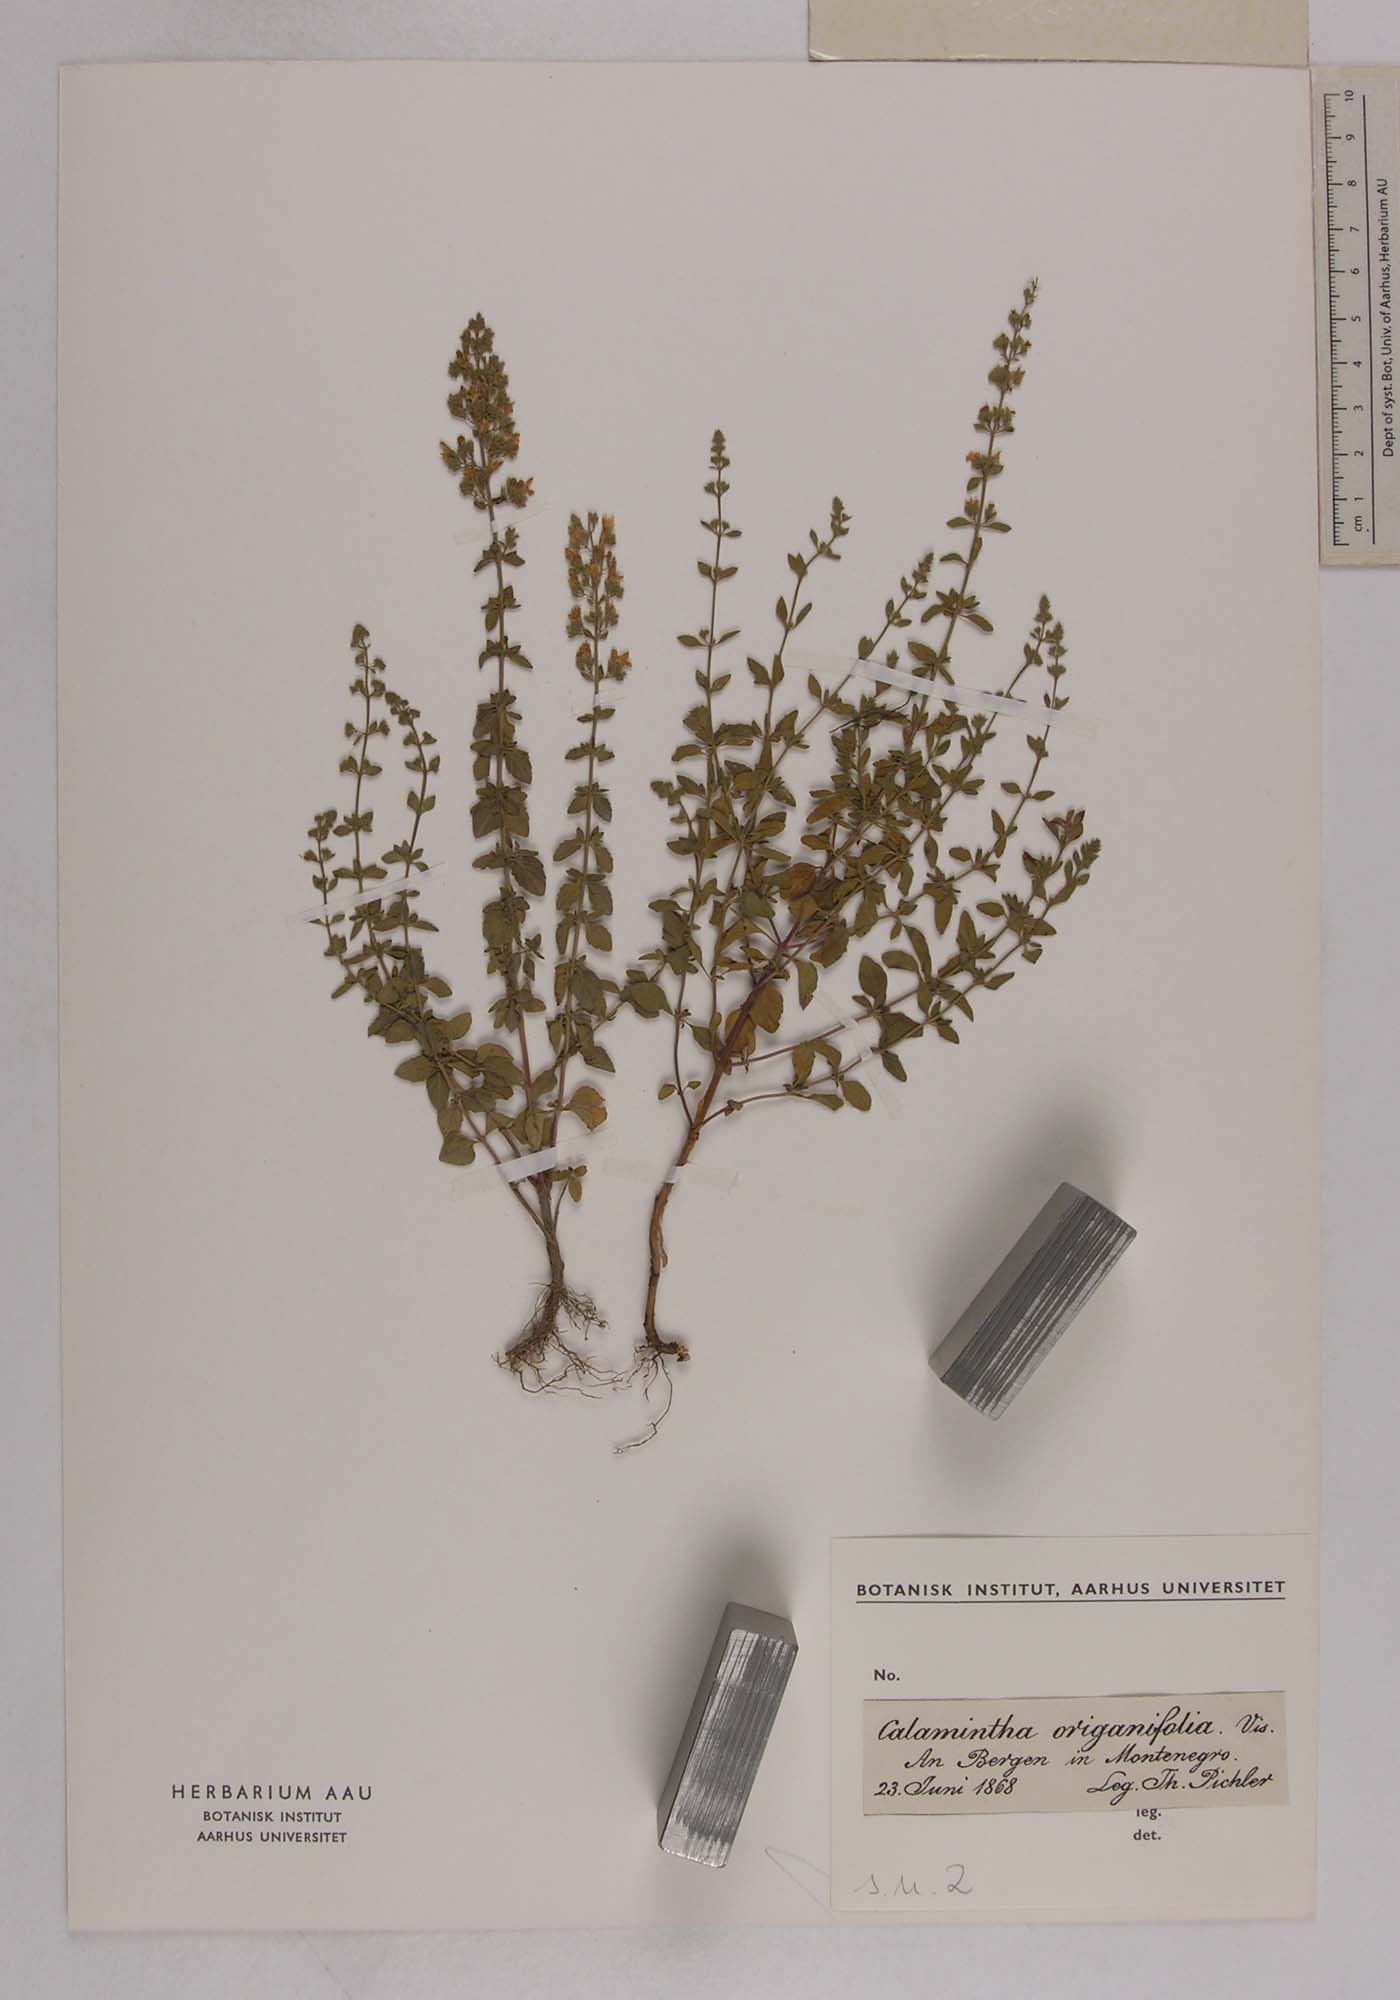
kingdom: Plantae
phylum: Tracheophyta
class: Magnoliopsida
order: Lamiales
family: Lamiaceae
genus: Clinopodium
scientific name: Clinopodium dalmaticum
